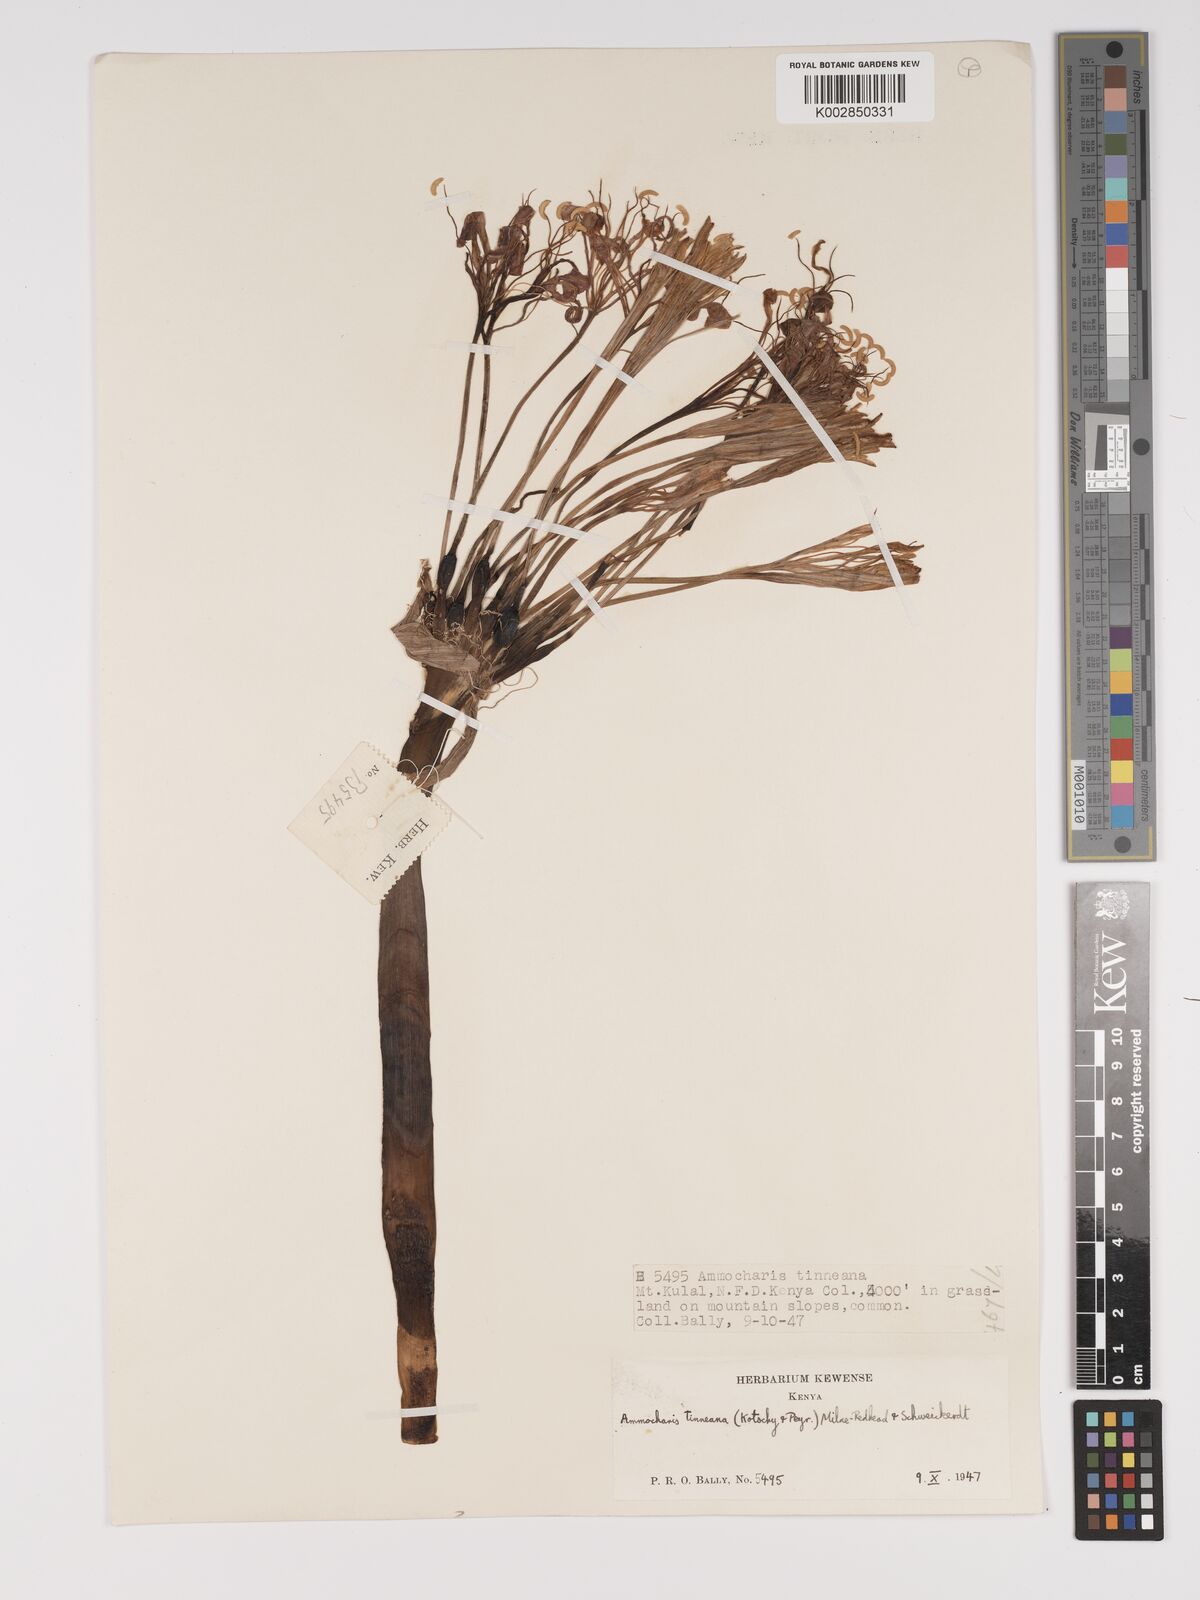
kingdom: Plantae
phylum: Tracheophyta
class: Liliopsida
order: Asparagales
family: Amaryllidaceae
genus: Ammocharis
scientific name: Ammocharis tinneana
